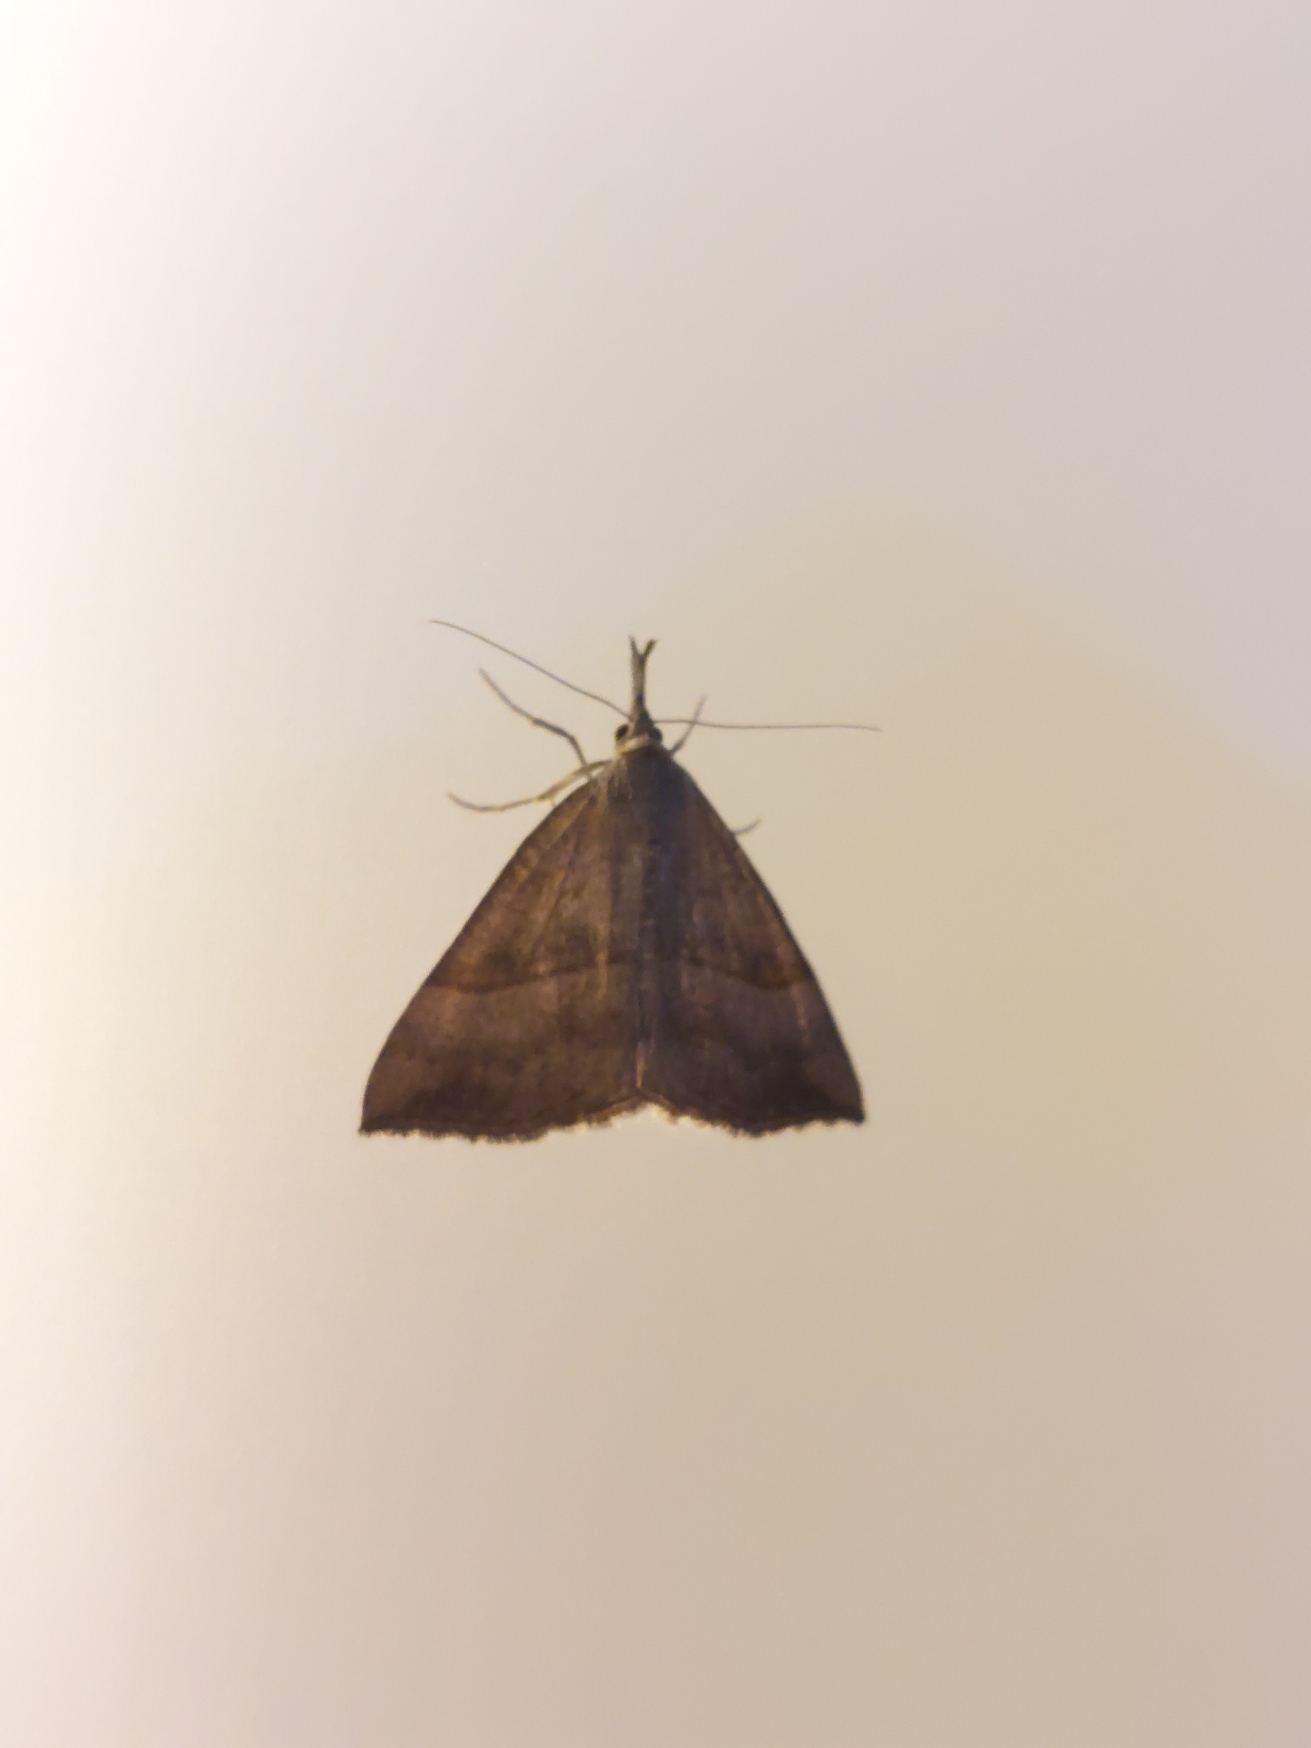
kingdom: Animalia
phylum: Arthropoda
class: Insecta
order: Lepidoptera
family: Erebidae
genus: Hypena
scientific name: Hypena proboscidalis
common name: Snudeugle
